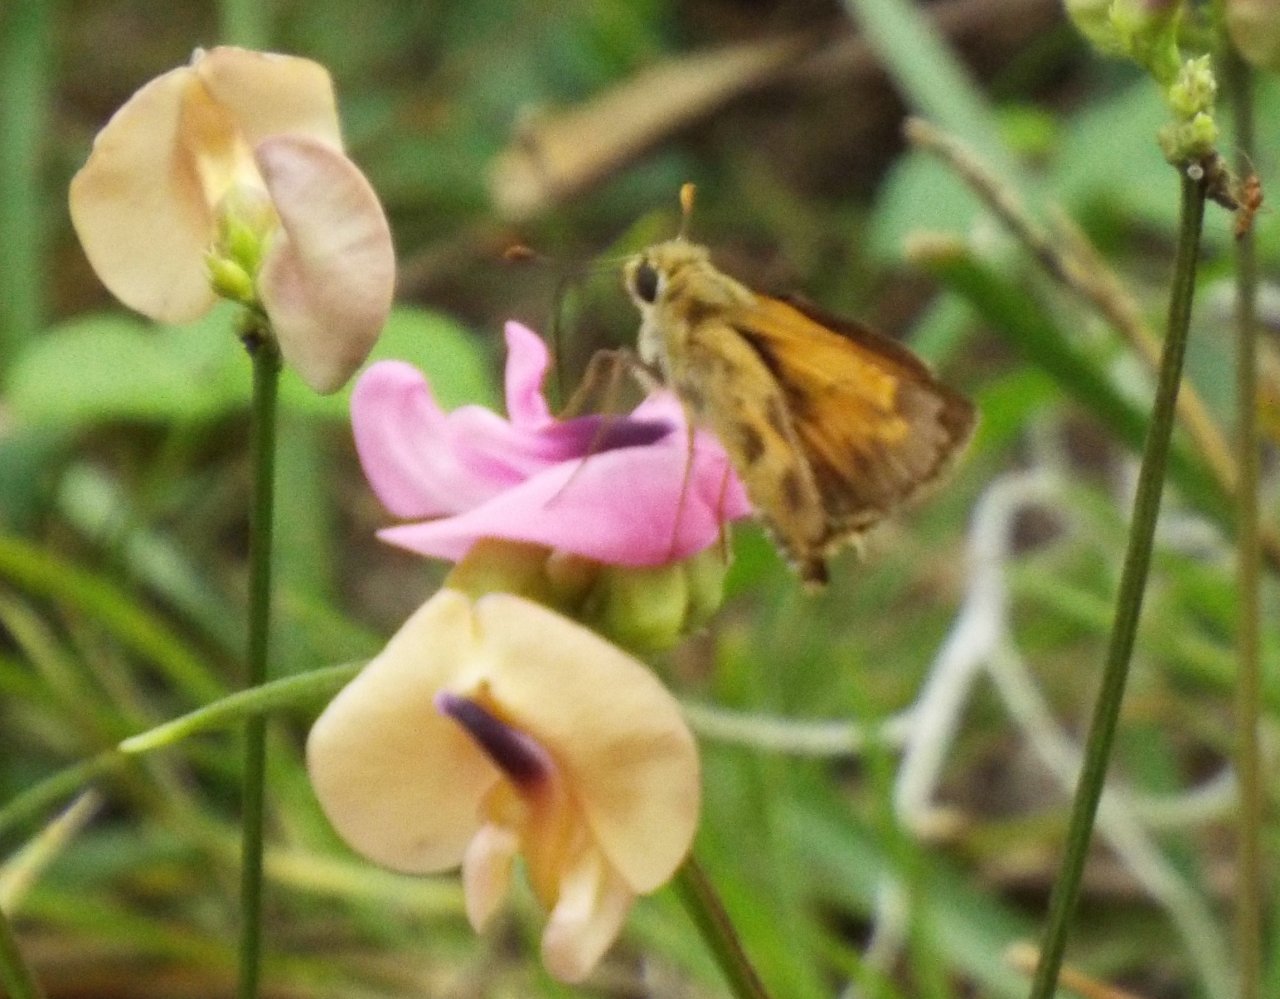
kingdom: Animalia
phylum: Arthropoda
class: Insecta
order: Lepidoptera
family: Hesperiidae
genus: Polites
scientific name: Polites vibex
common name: Whirlabout
